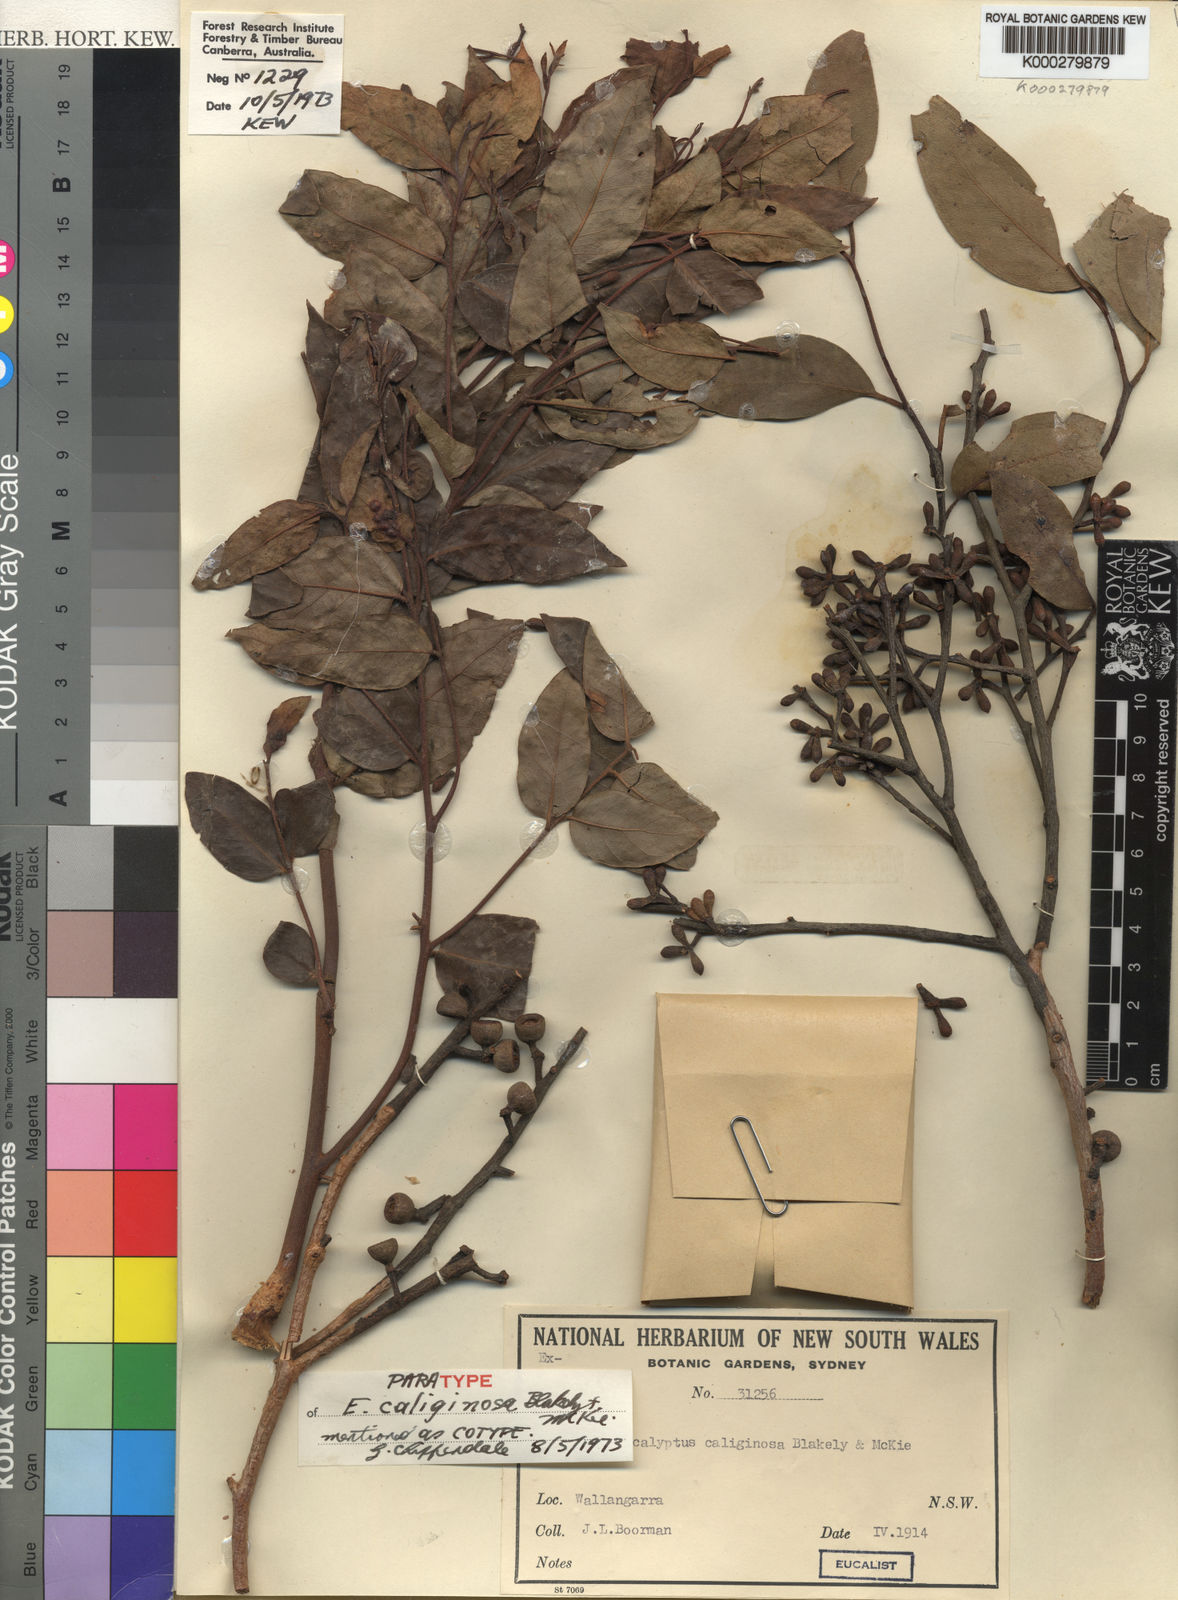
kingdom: Plantae
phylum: Tracheophyta
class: Magnoliopsida
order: Myrtales
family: Myrtaceae
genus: Eucalyptus
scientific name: Eucalyptus caliginosa
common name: New england stringybark
